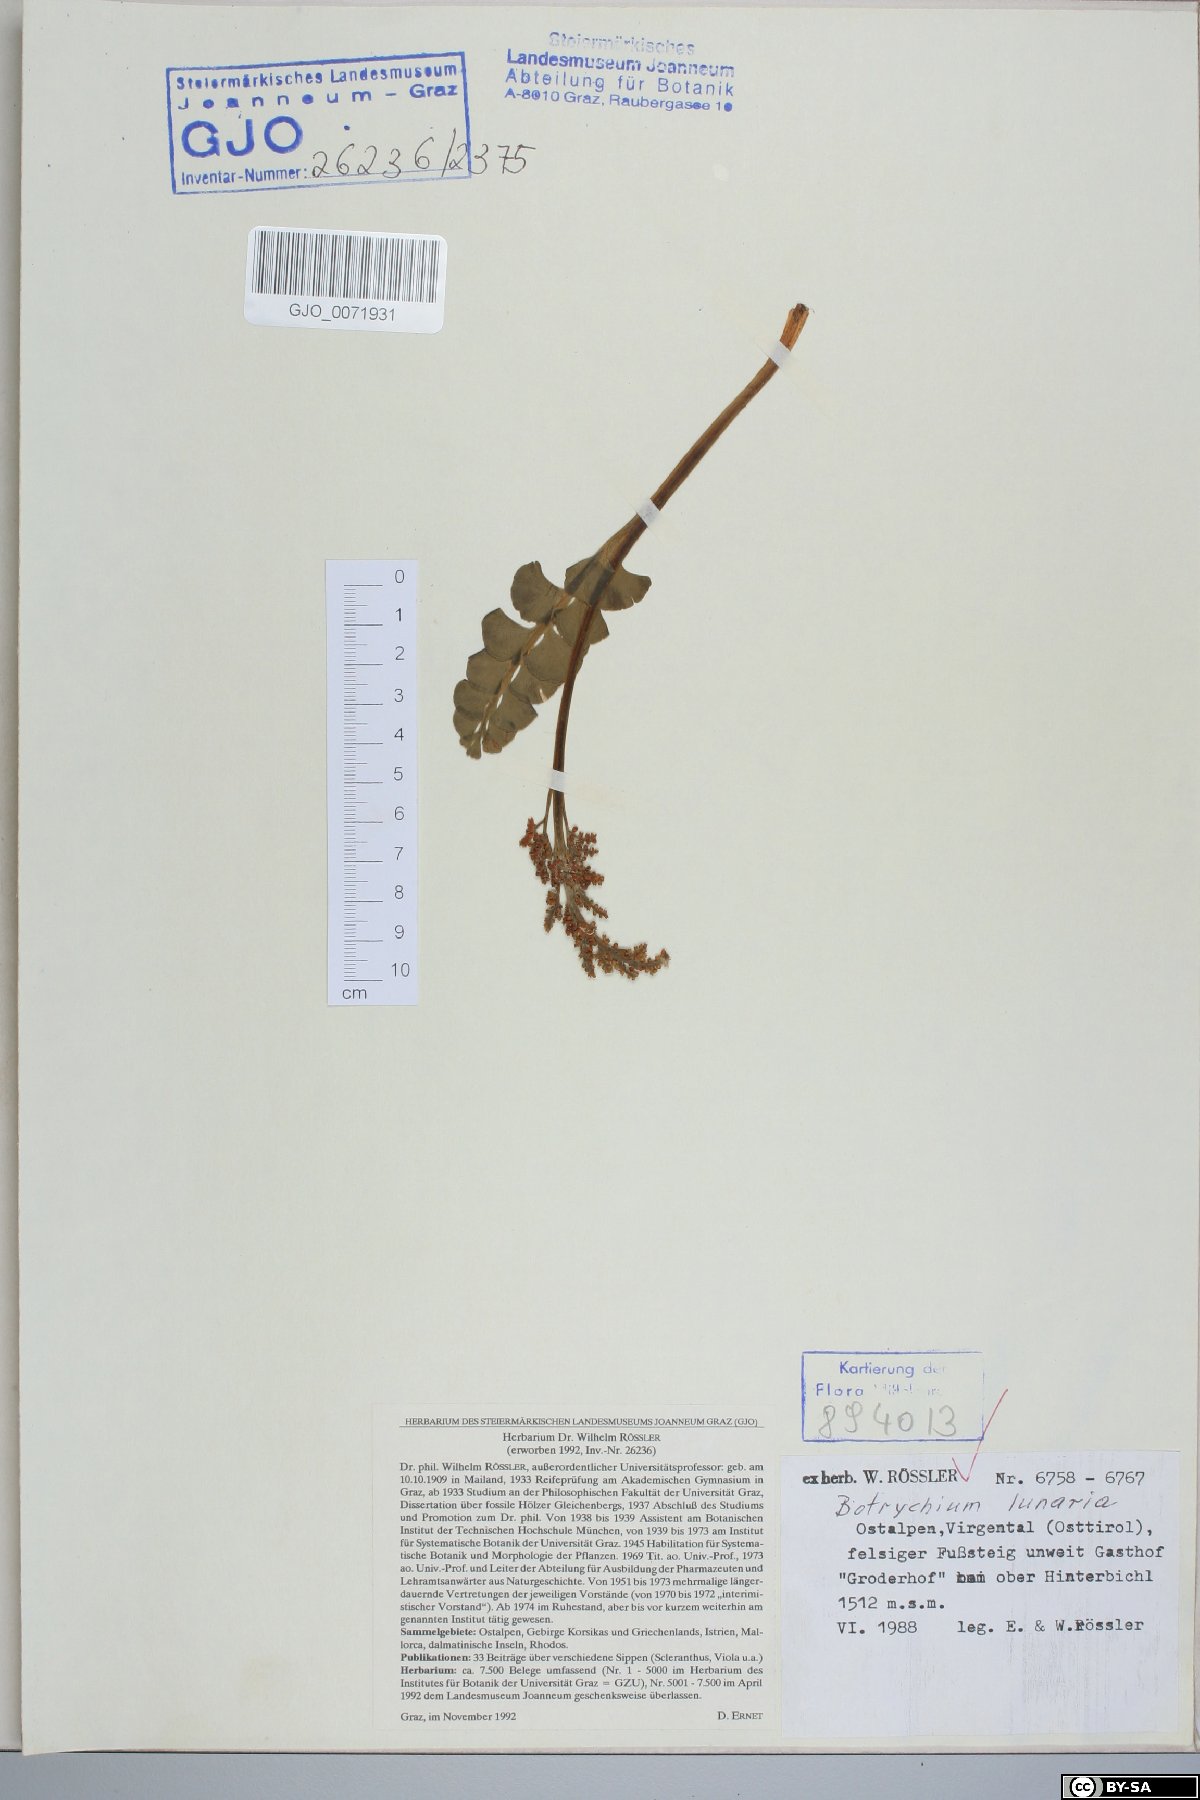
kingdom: Plantae
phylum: Tracheophyta
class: Polypodiopsida
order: Ophioglossales
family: Ophioglossaceae
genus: Botrychium
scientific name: Botrychium lunaria
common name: Moonwort
